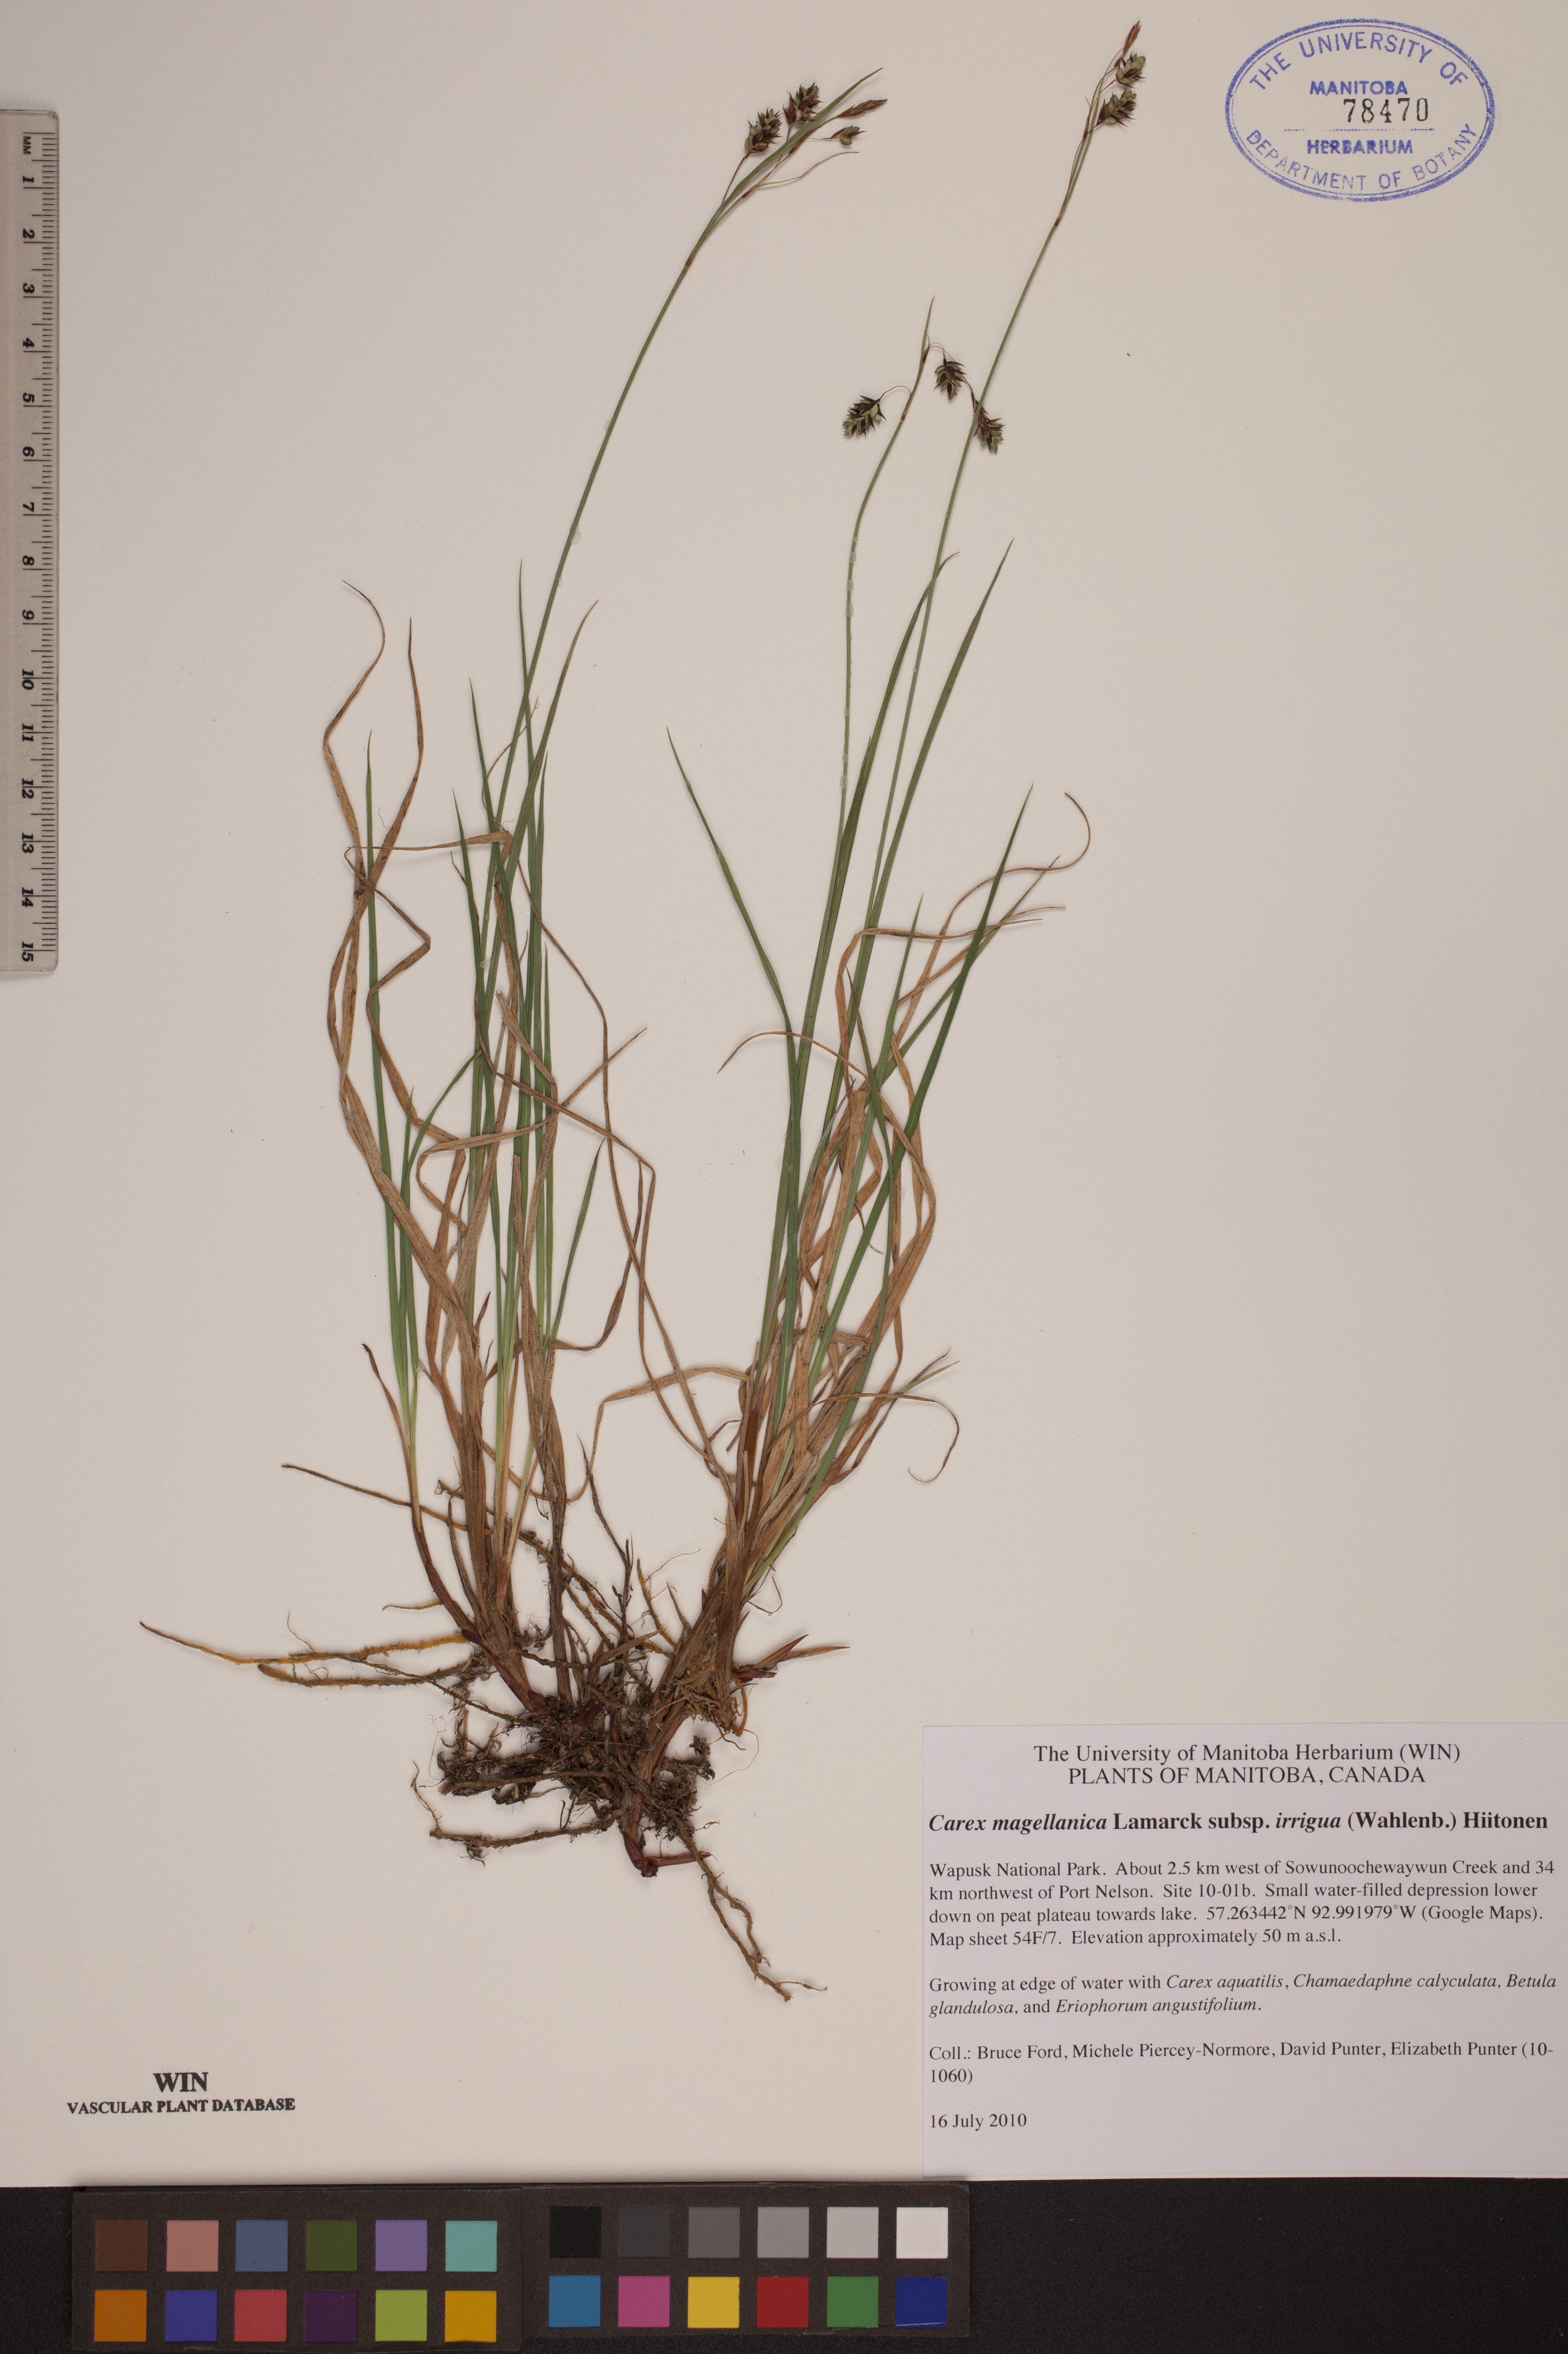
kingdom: Plantae
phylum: Tracheophyta
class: Liliopsida
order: Poales
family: Cyperaceae
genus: Carex
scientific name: Carex magellanica
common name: Bog sedge
